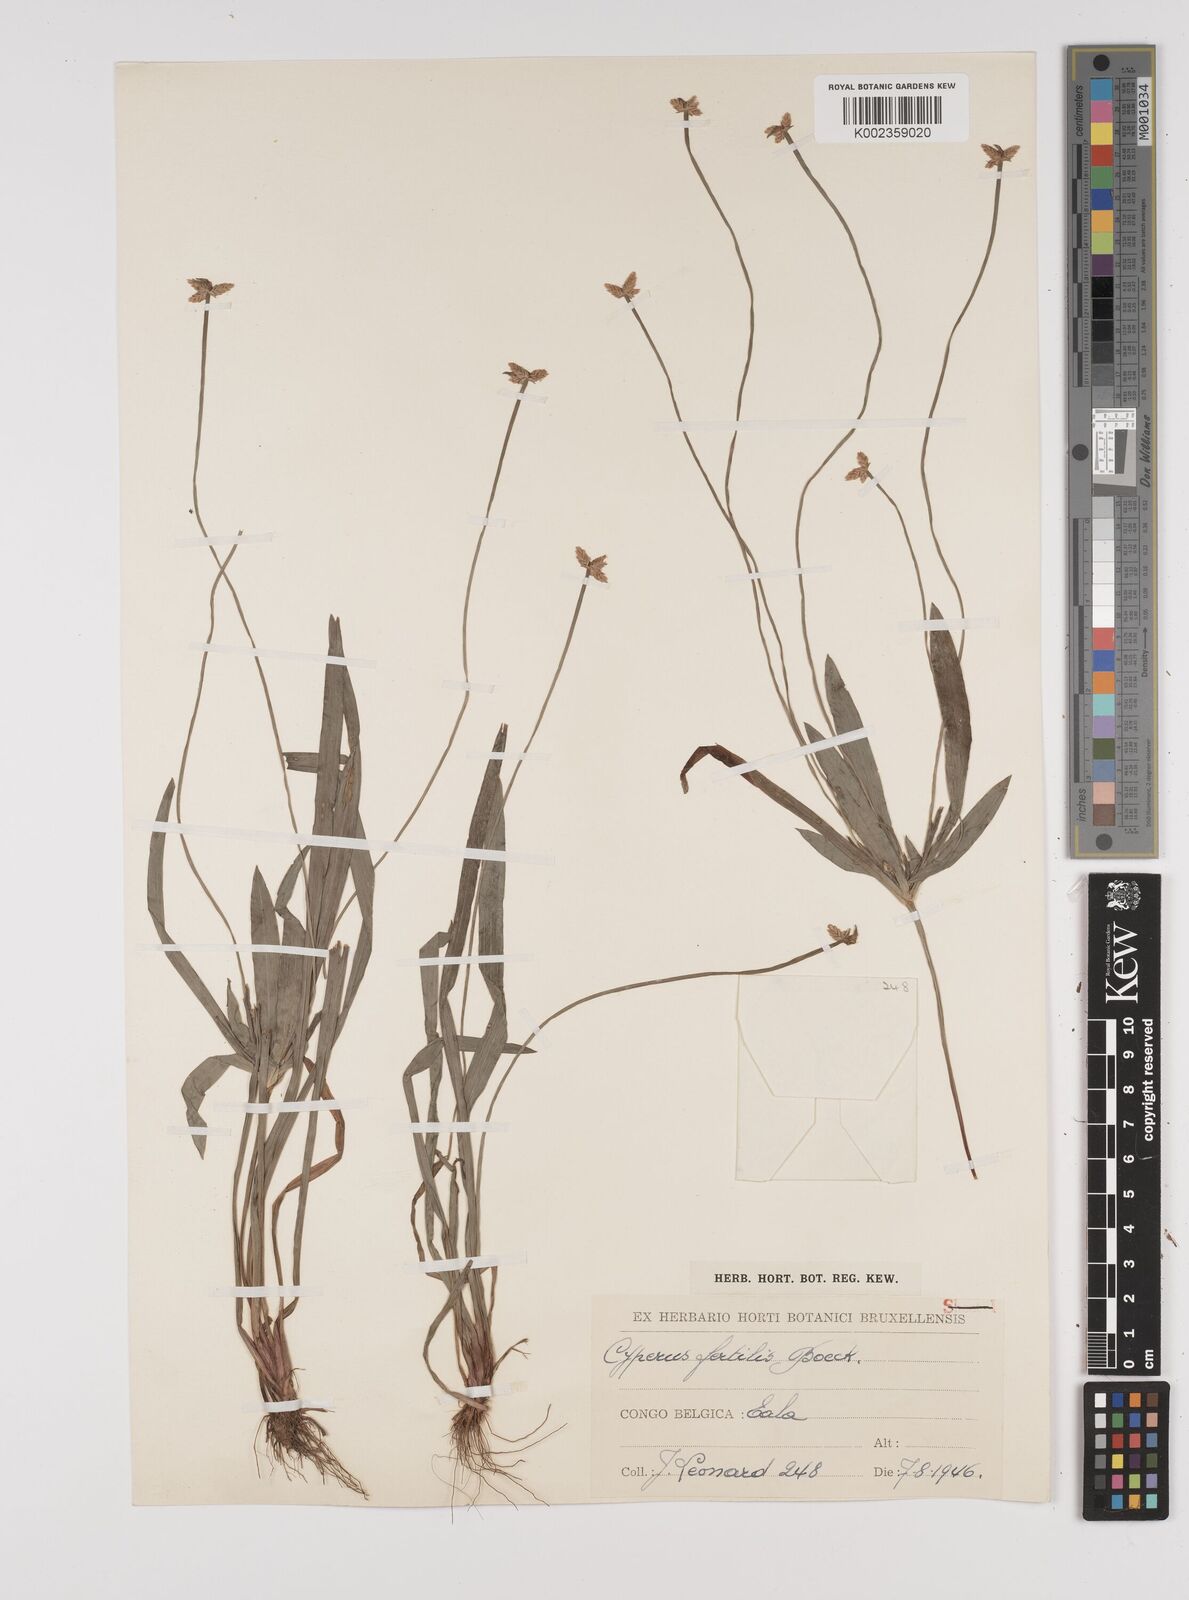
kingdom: Plantae
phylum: Tracheophyta
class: Liliopsida
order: Poales
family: Cyperaceae
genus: Cyperus
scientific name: Cyperus fertilis
